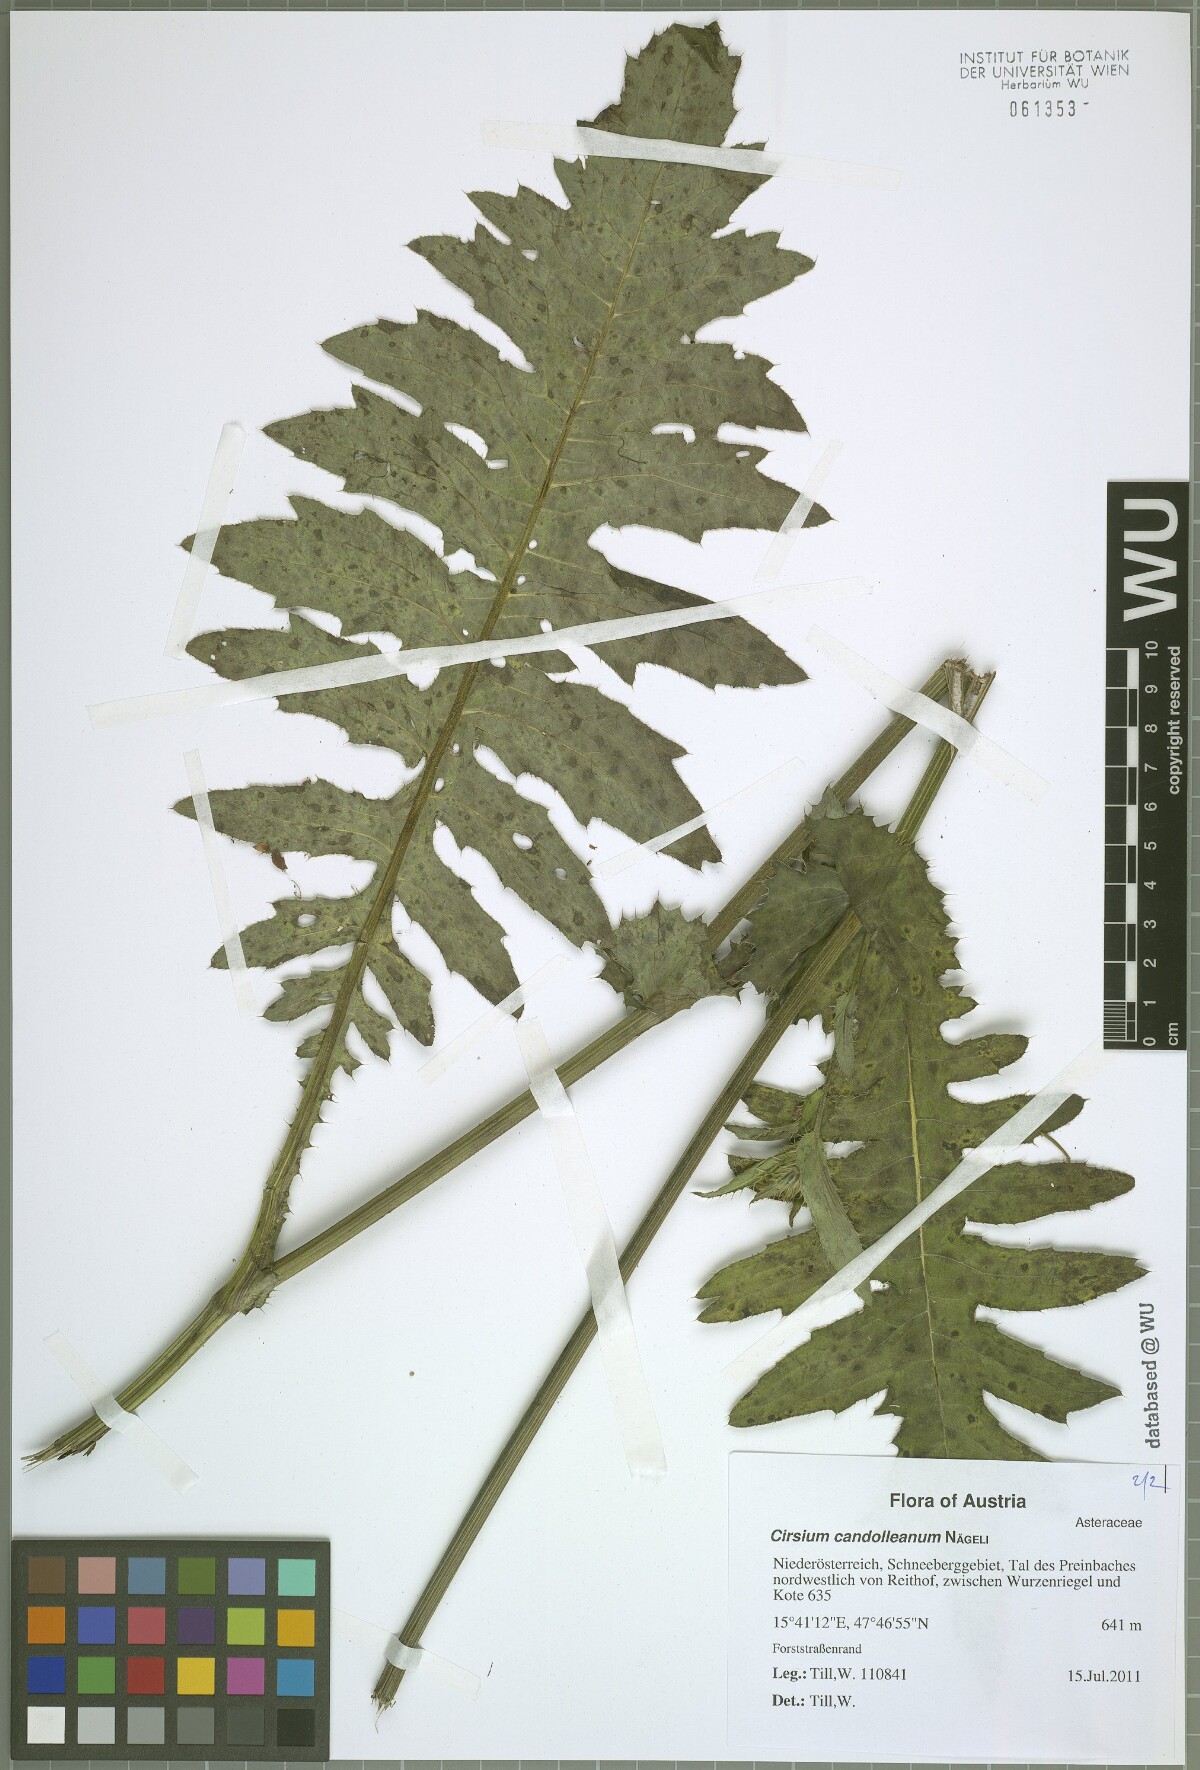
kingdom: Plantae
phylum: Tracheophyta
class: Magnoliopsida
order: Asterales
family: Asteraceae
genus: Cirsium
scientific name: Cirsium candolleanum
